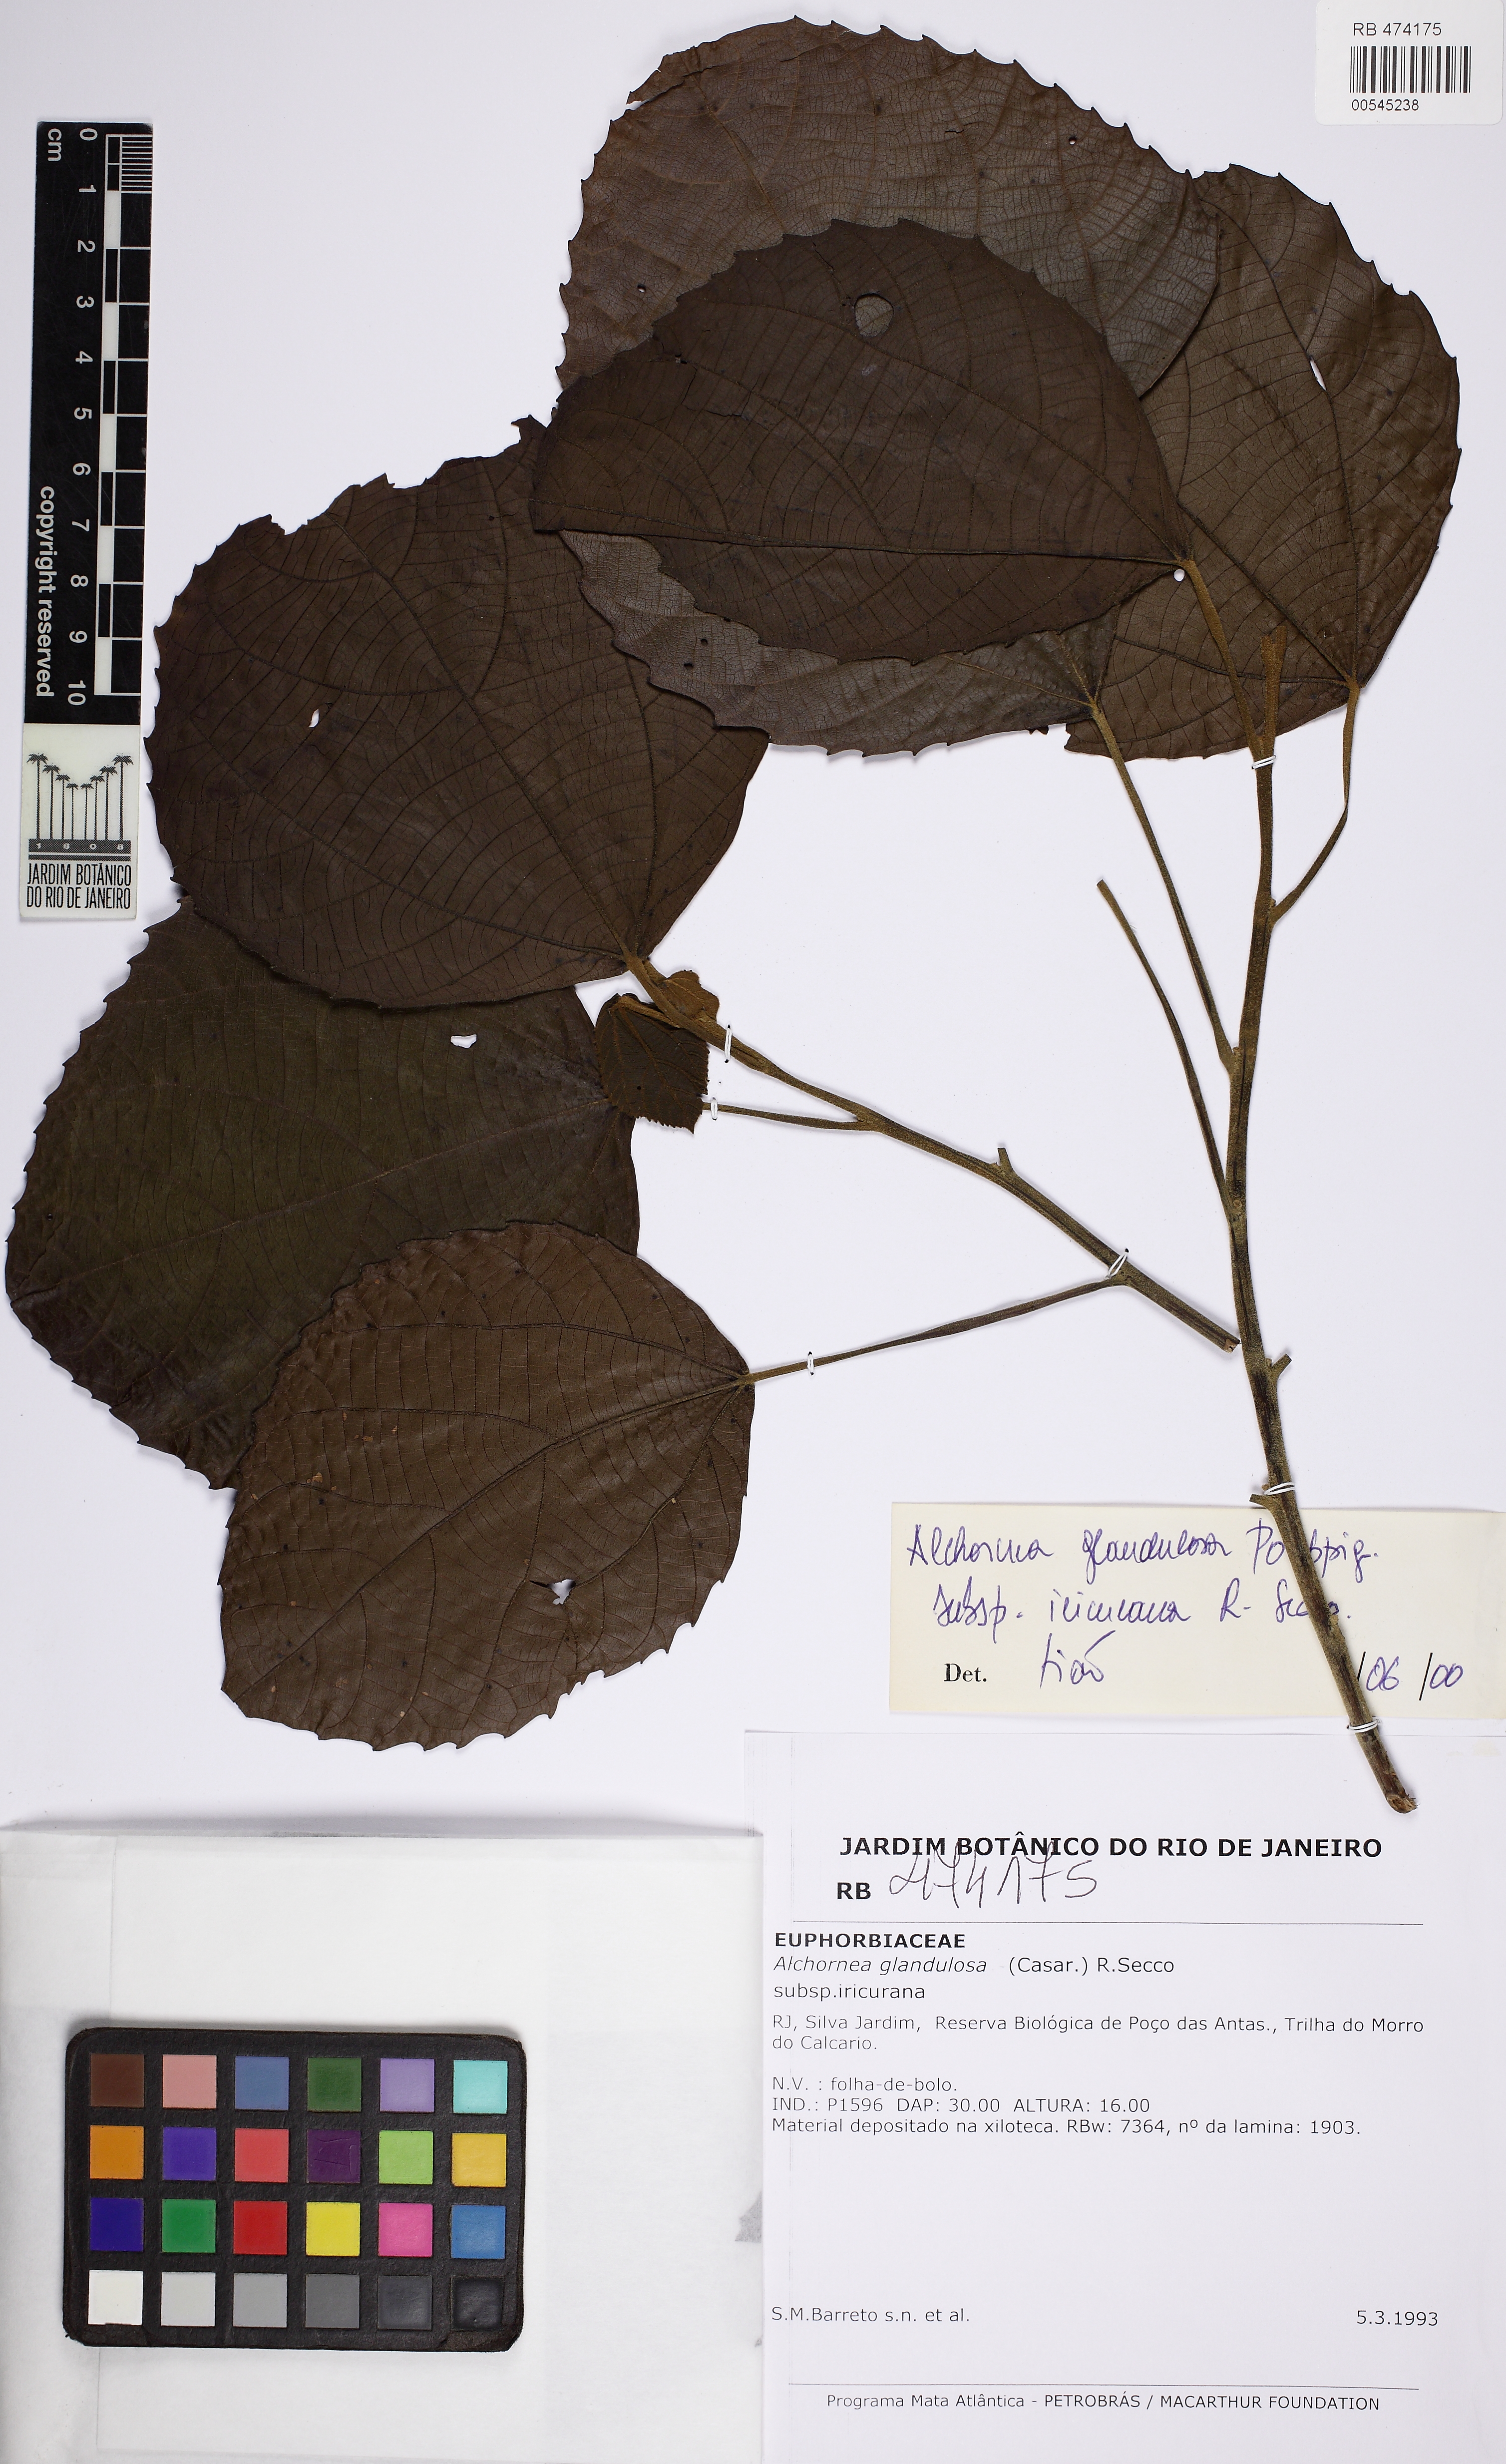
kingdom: Plantae
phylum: Tracheophyta
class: Magnoliopsida
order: Malpighiales
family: Euphorbiaceae
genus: Alchornea
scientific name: Alchornea glandulosa
